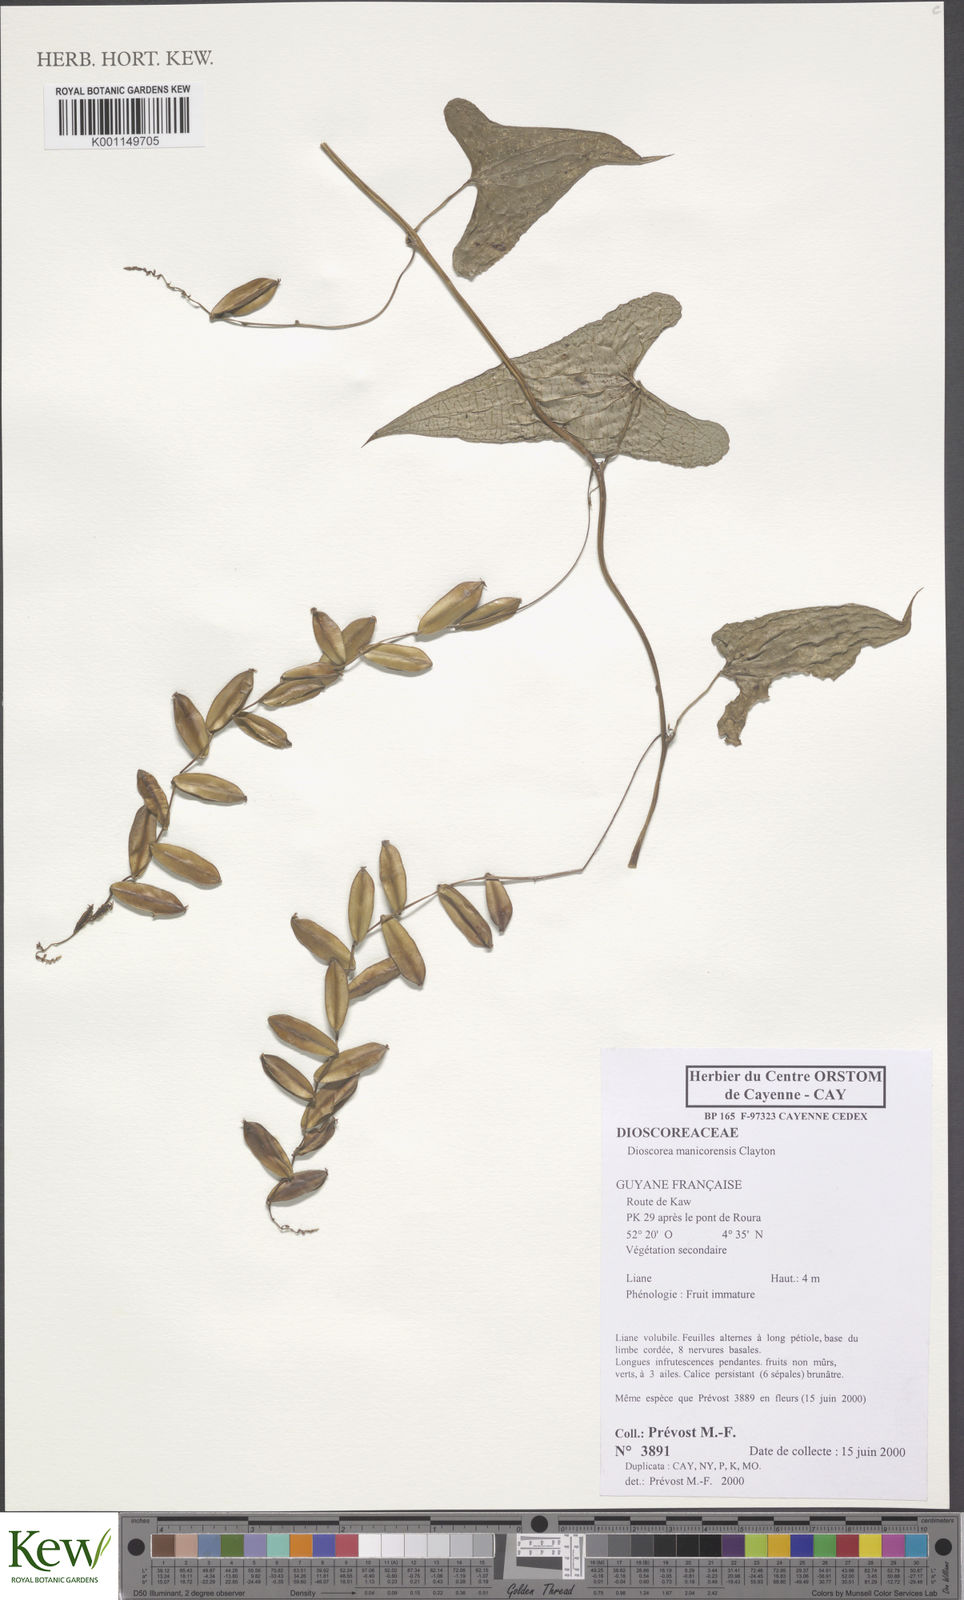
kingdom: Plantae
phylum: Tracheophyta
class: Liliopsida
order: Dioscoreales
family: Dioscoreaceae
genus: Dioscorea
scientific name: Dioscorea piperifolia
